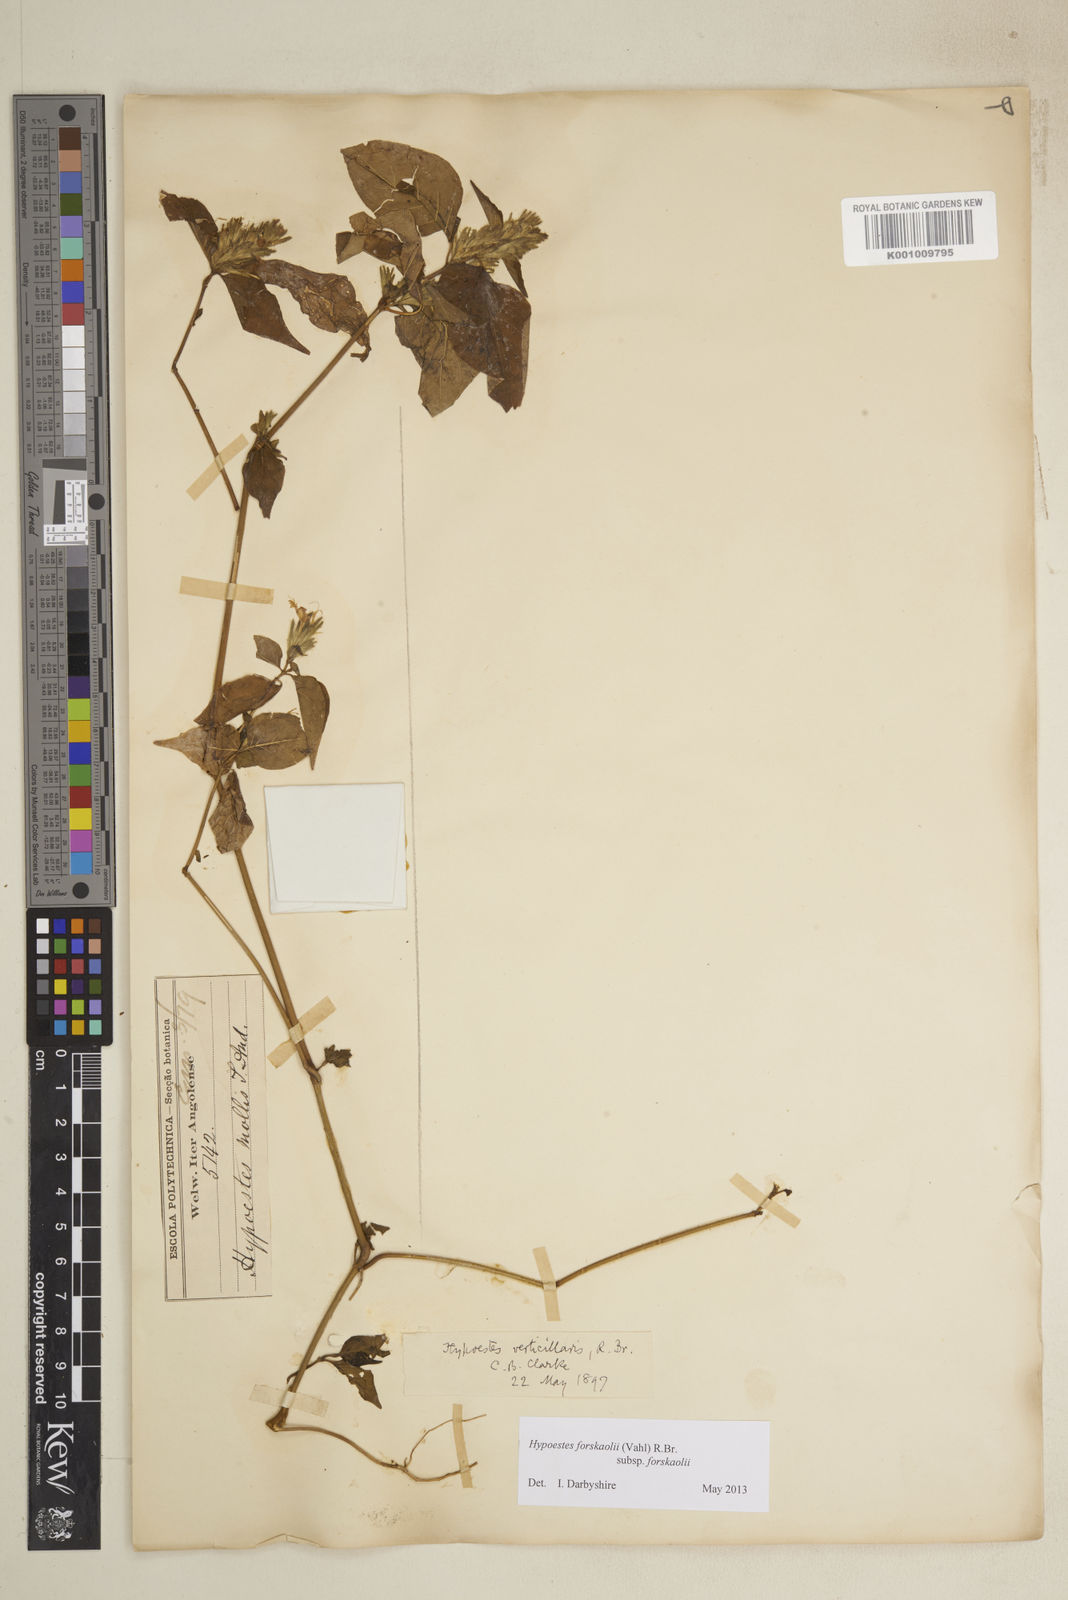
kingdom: Plantae
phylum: Tracheophyta
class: Magnoliopsida
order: Lamiales
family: Acanthaceae
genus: Hypoestes
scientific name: Hypoestes forskaolii
